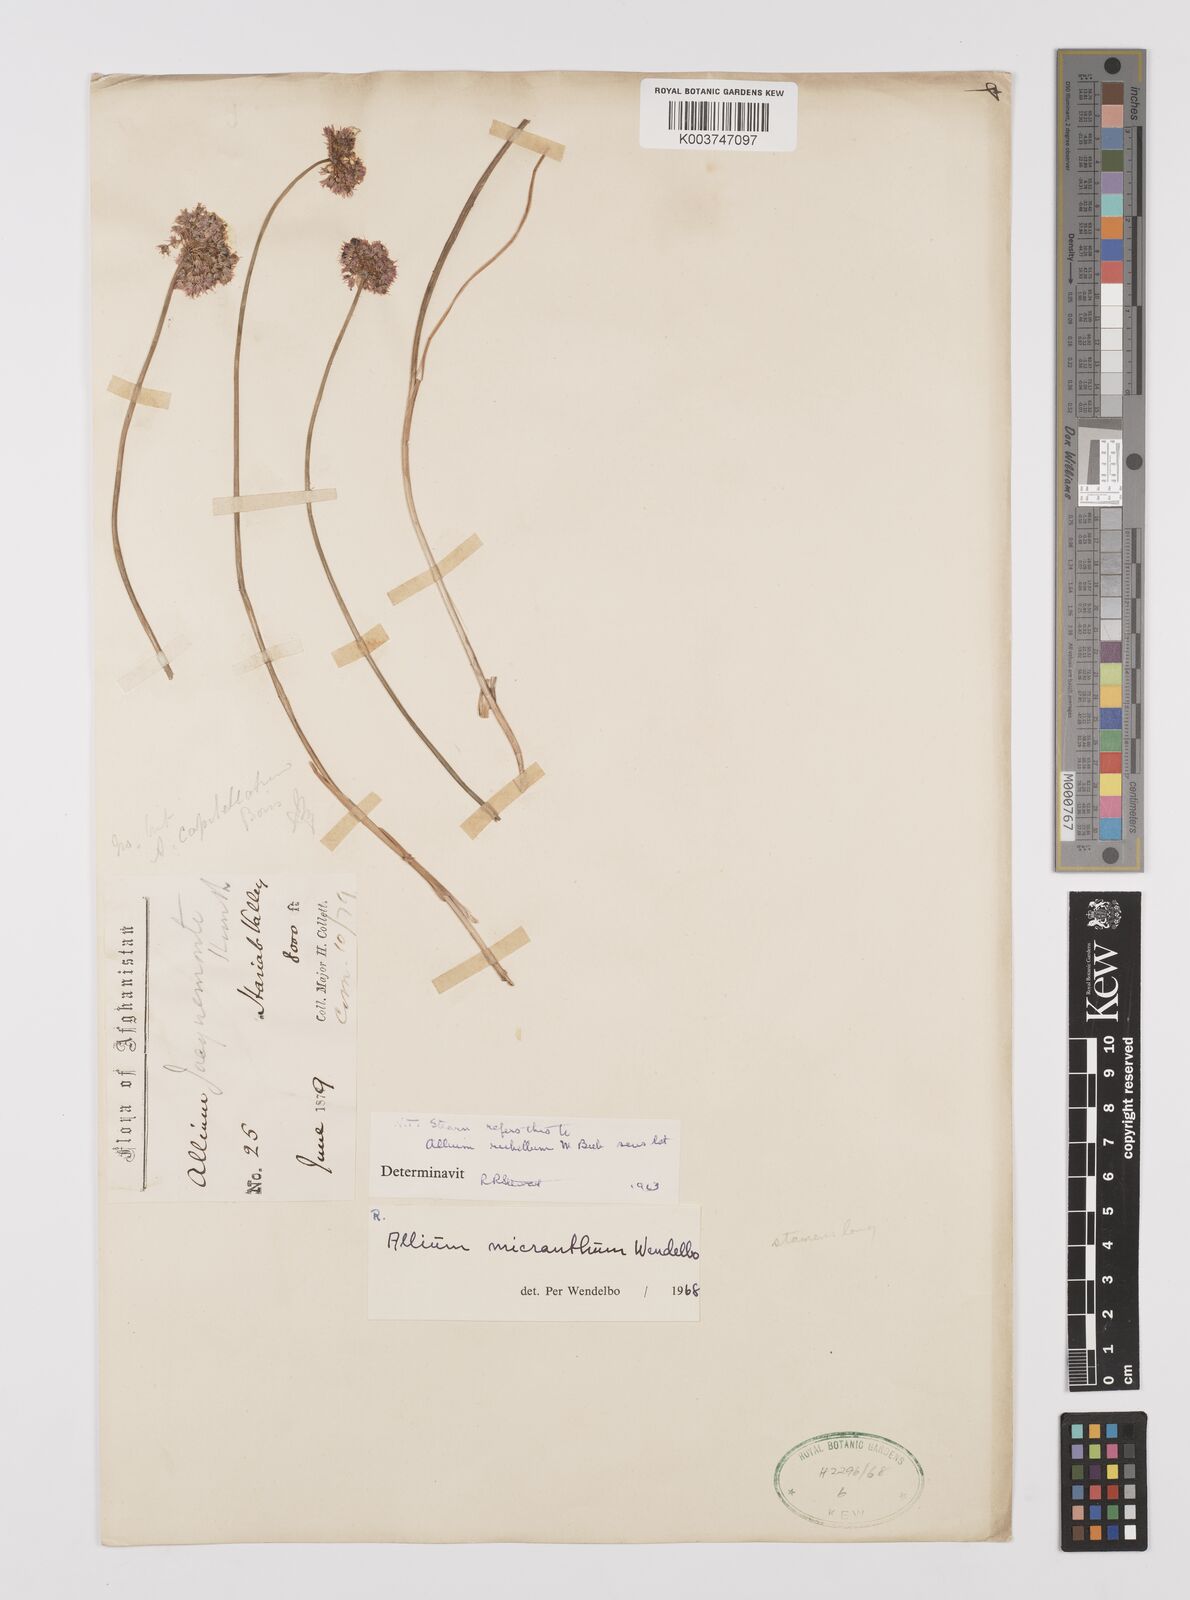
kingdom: Plantae
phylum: Tracheophyta
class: Liliopsida
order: Asparagales
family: Amaryllidaceae
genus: Allium
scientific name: Allium micranthum
